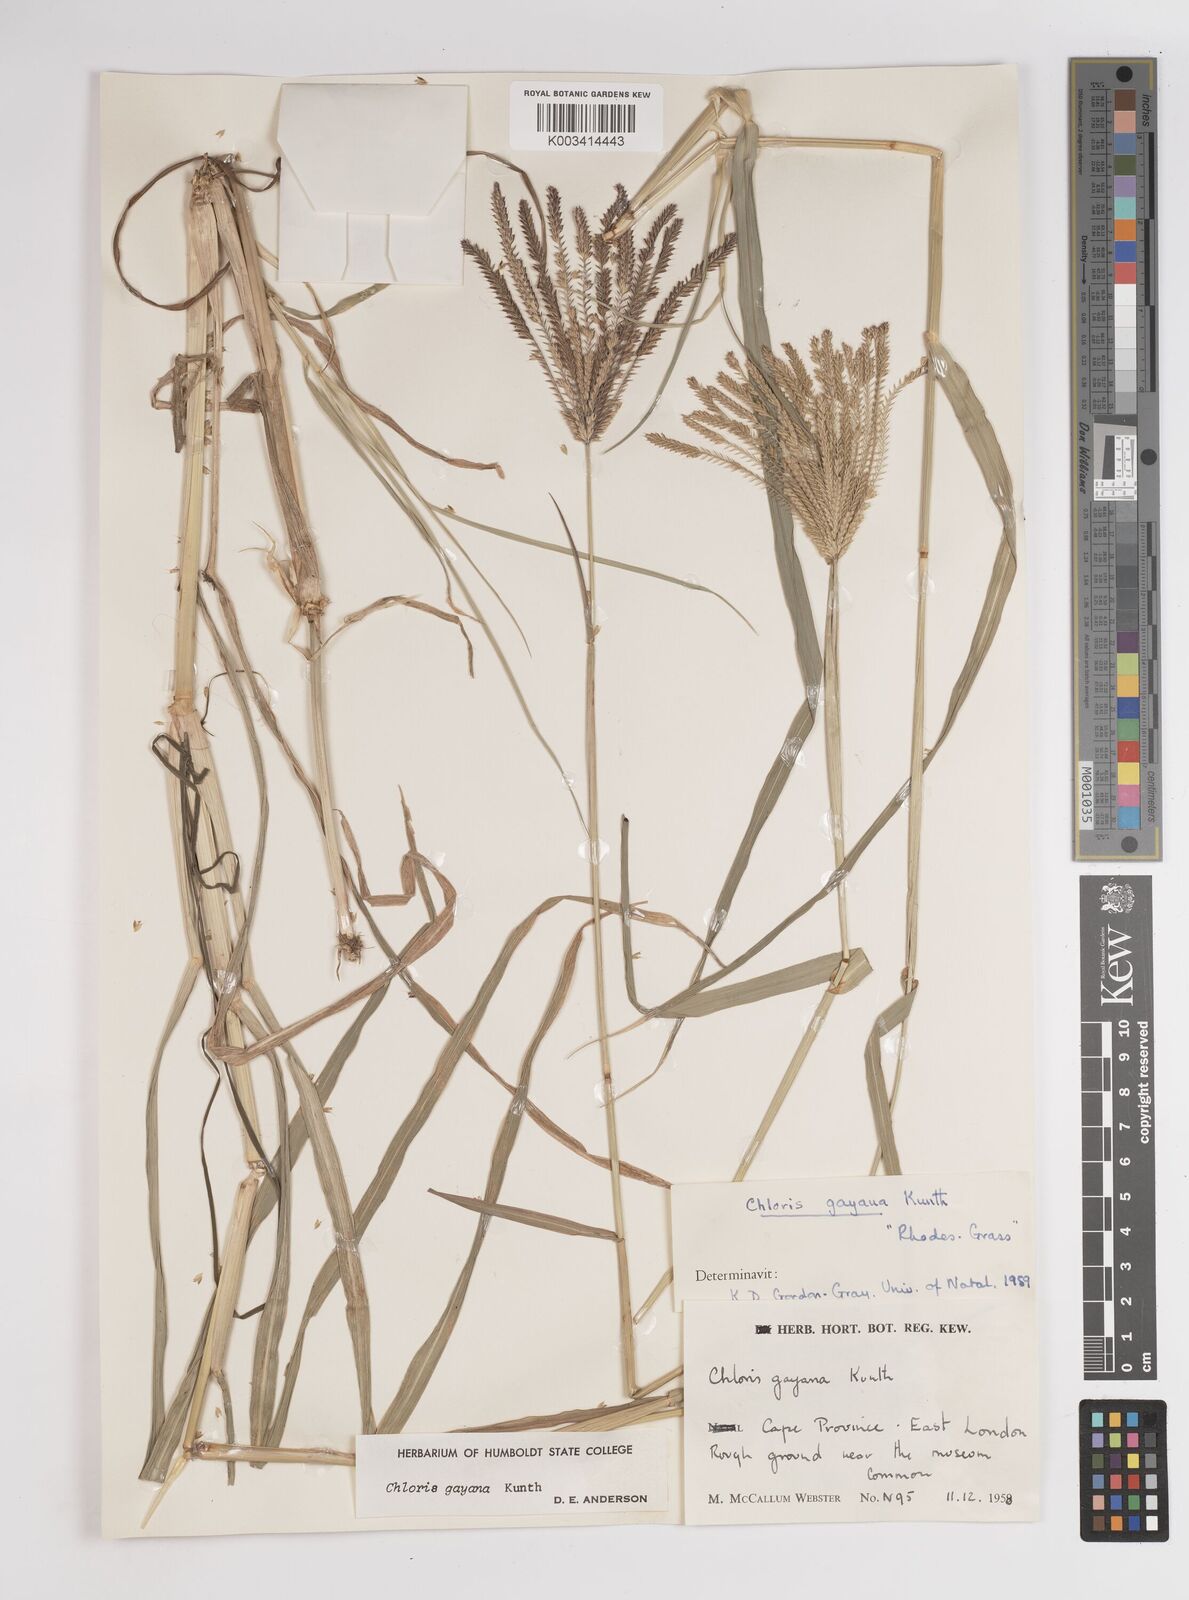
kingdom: Plantae
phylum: Tracheophyta
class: Liliopsida
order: Poales
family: Poaceae
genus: Chloris
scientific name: Chloris gayana
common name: Rhodes grass
